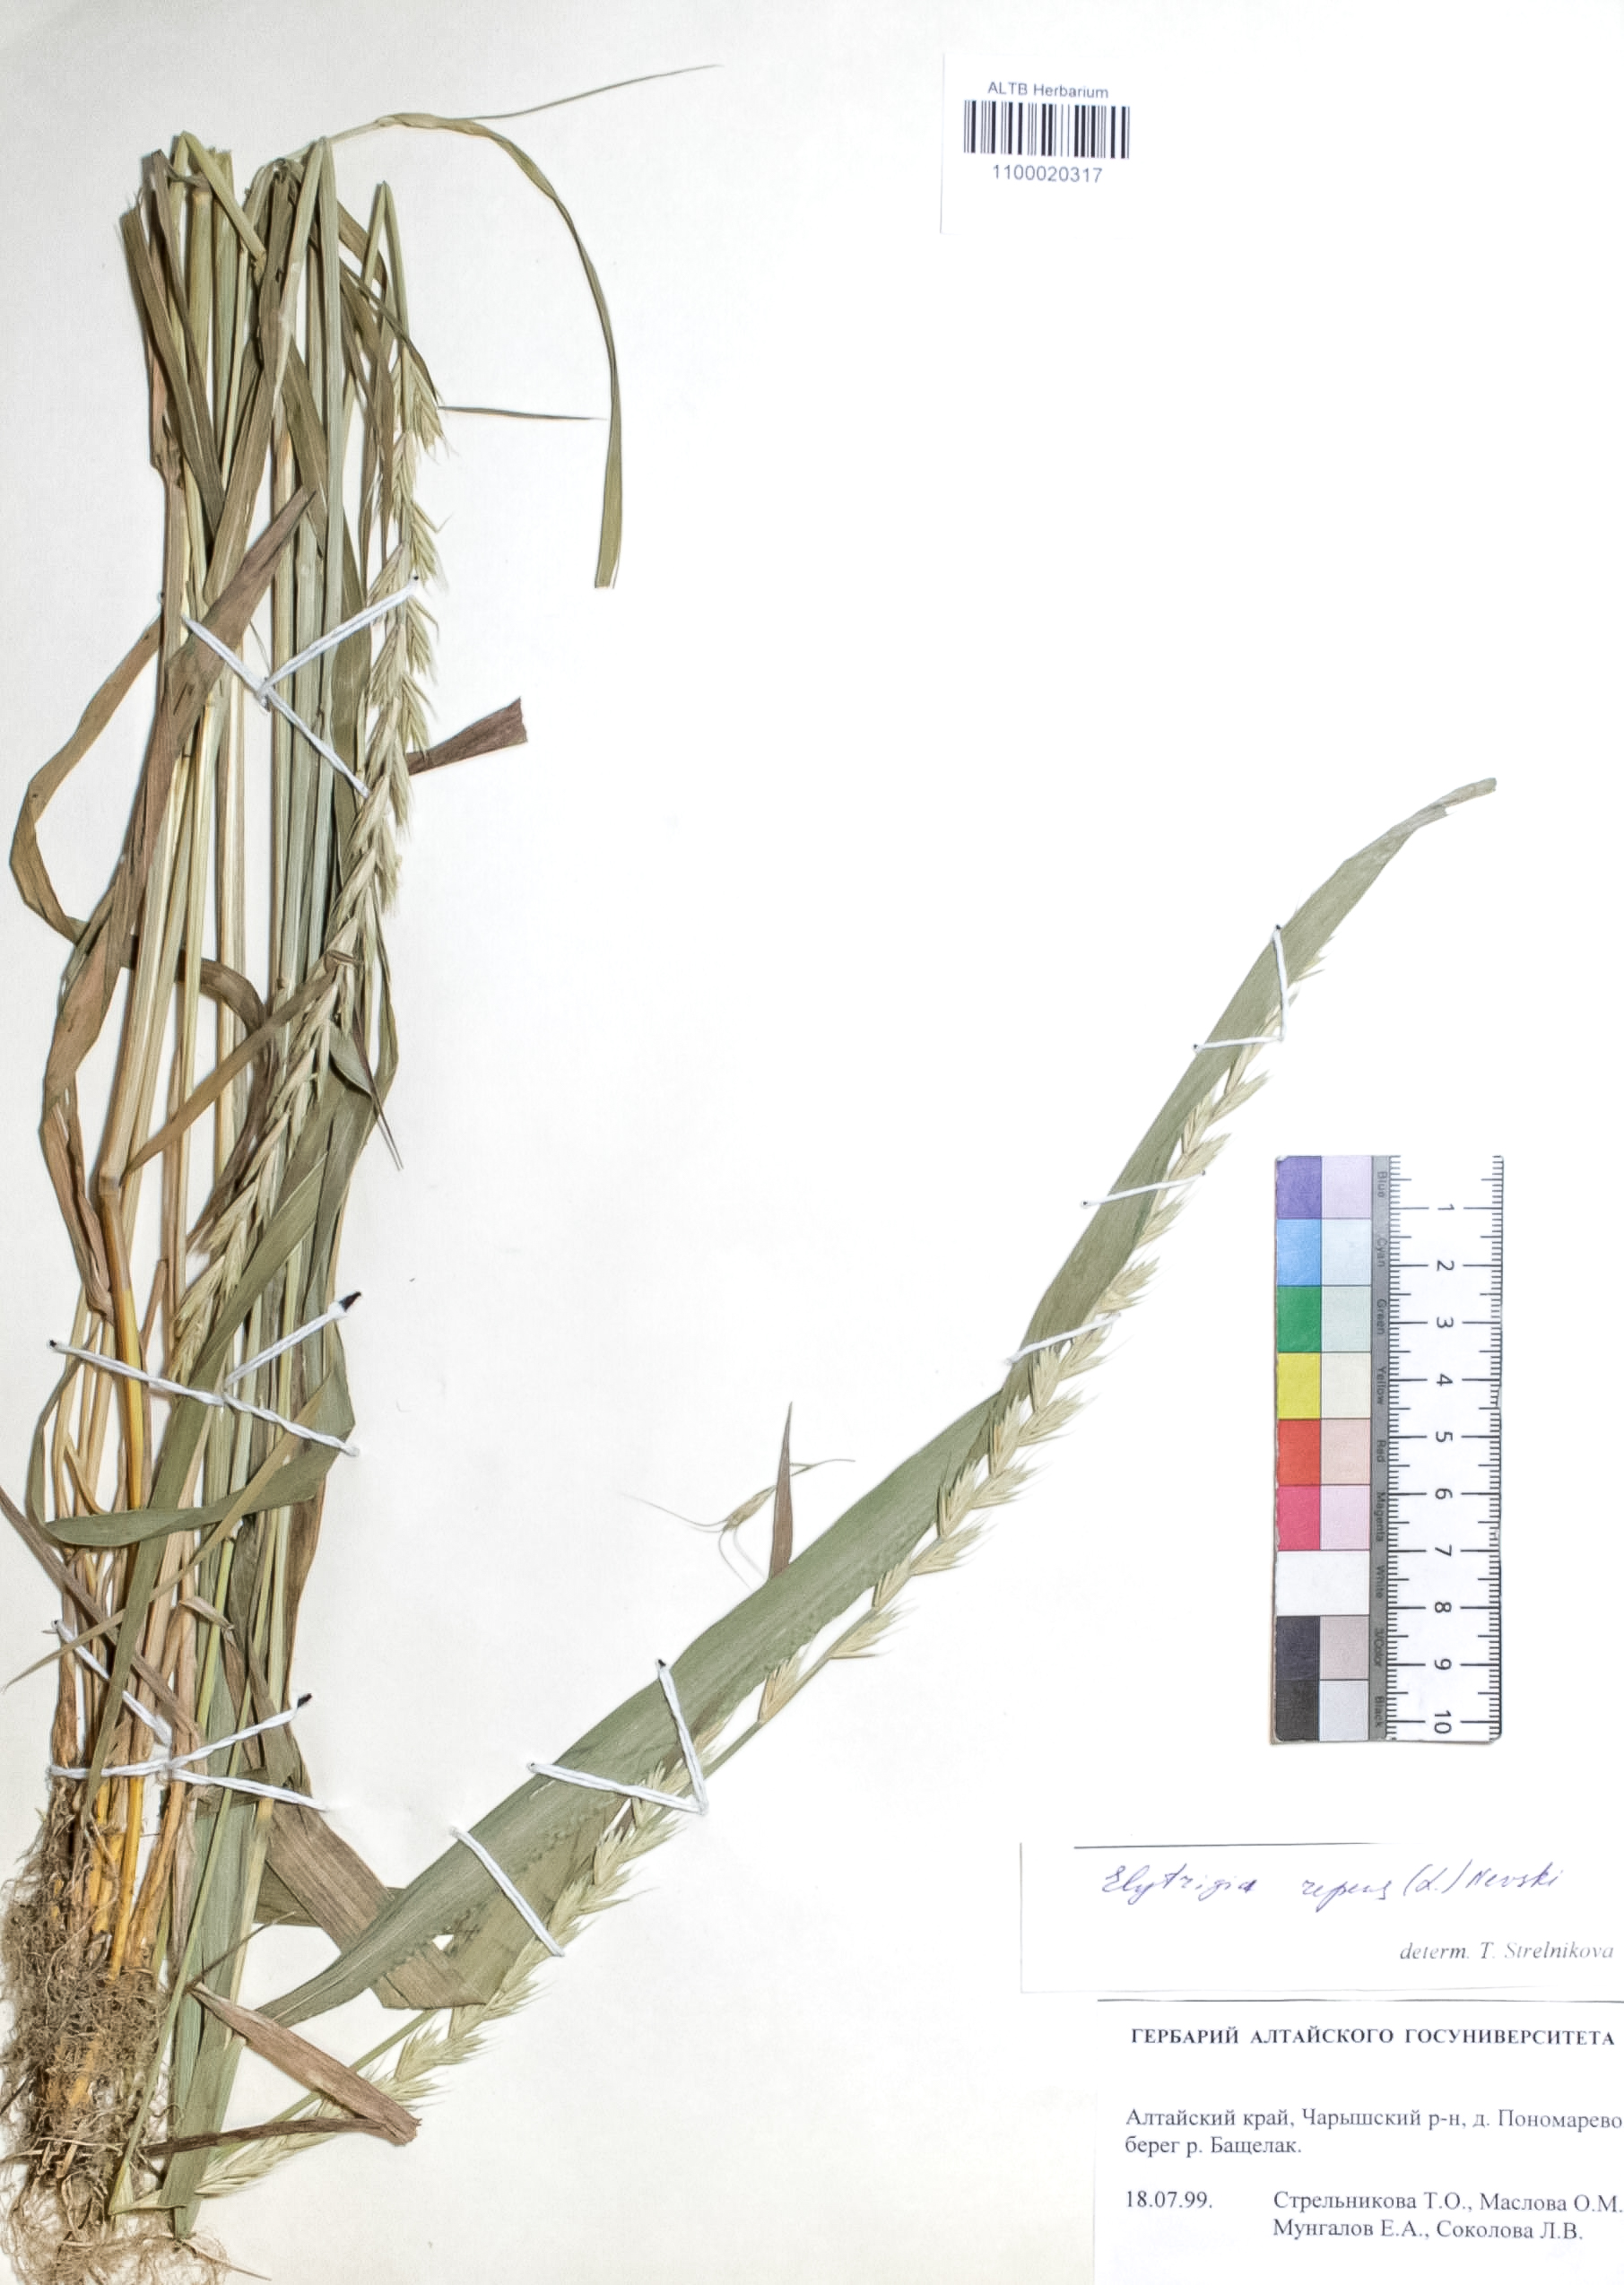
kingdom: Plantae
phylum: Tracheophyta
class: Liliopsida
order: Poales
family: Poaceae
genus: Elymus
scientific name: Elymus repens
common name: Quackgrass
